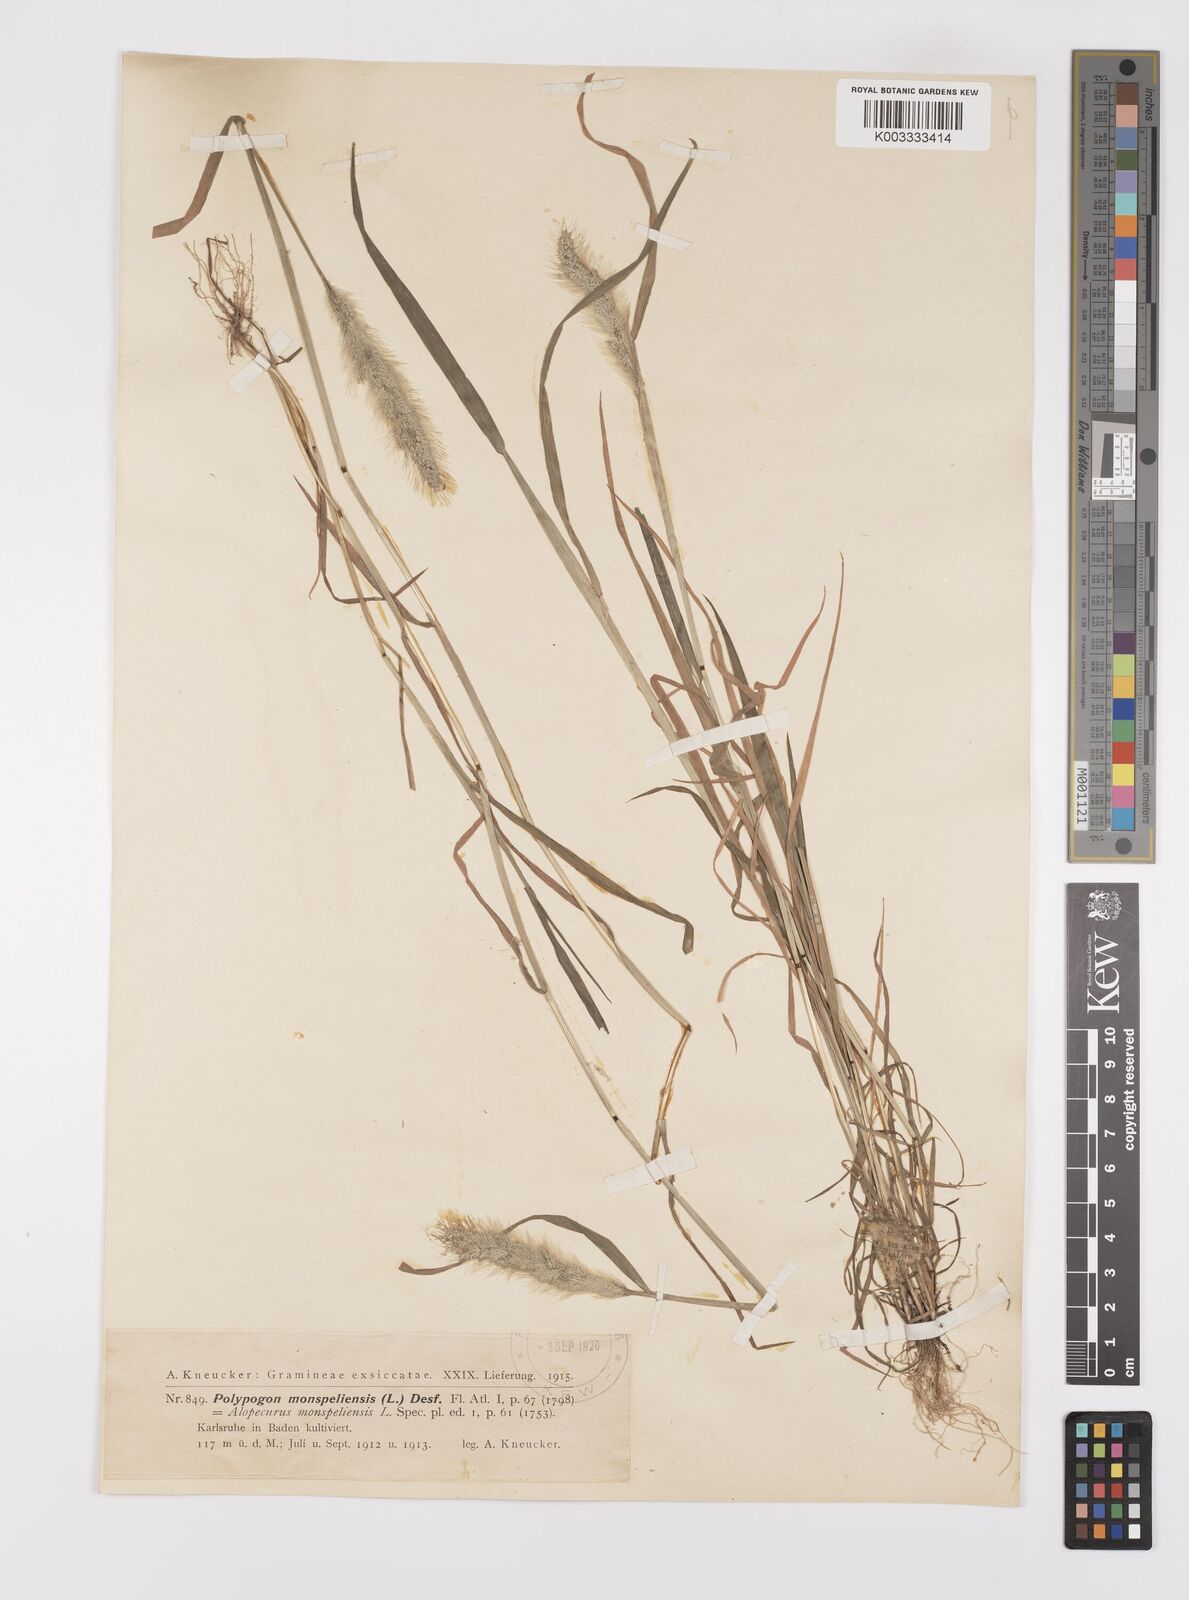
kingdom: Plantae
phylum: Tracheophyta
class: Liliopsida
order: Poales
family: Poaceae
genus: Polypogon
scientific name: Polypogon monspeliensis
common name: Annual rabbitsfoot grass
